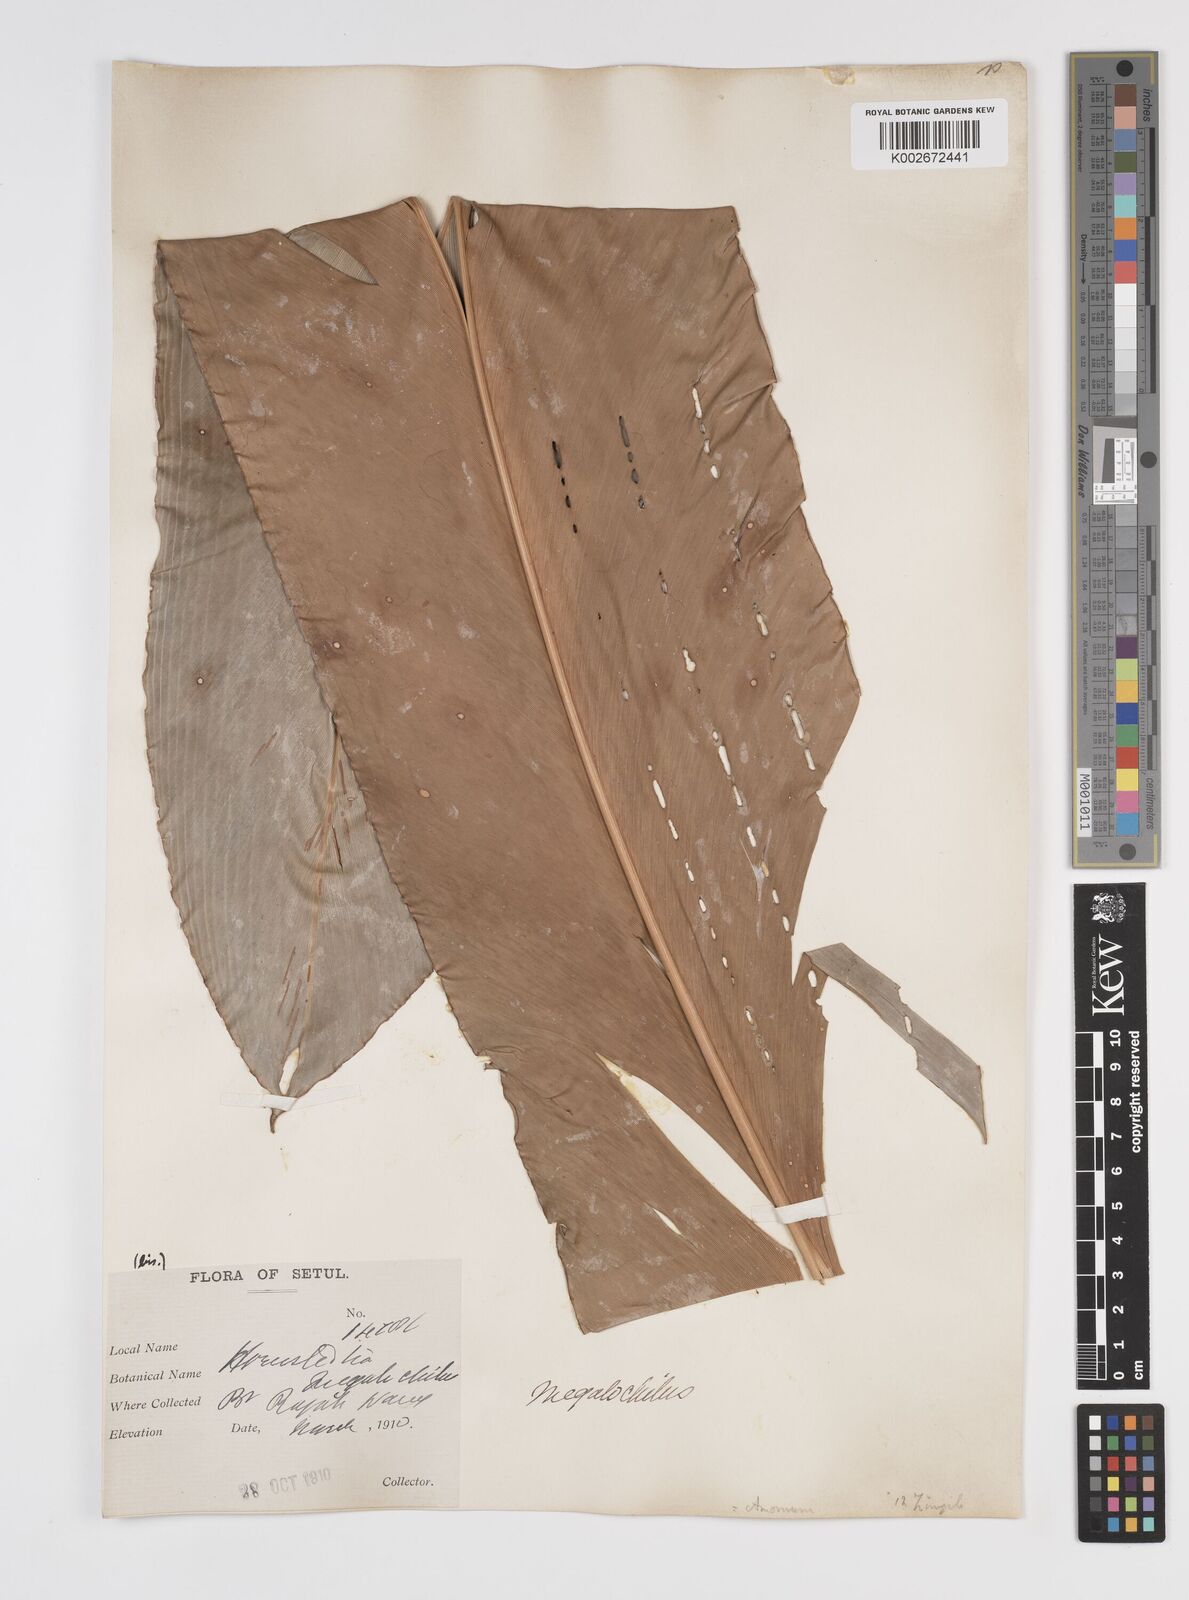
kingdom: Plantae
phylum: Tracheophyta
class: Liliopsida
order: Zingiberales
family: Zingiberaceae
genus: Etlingera
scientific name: Etlingera littoralis
